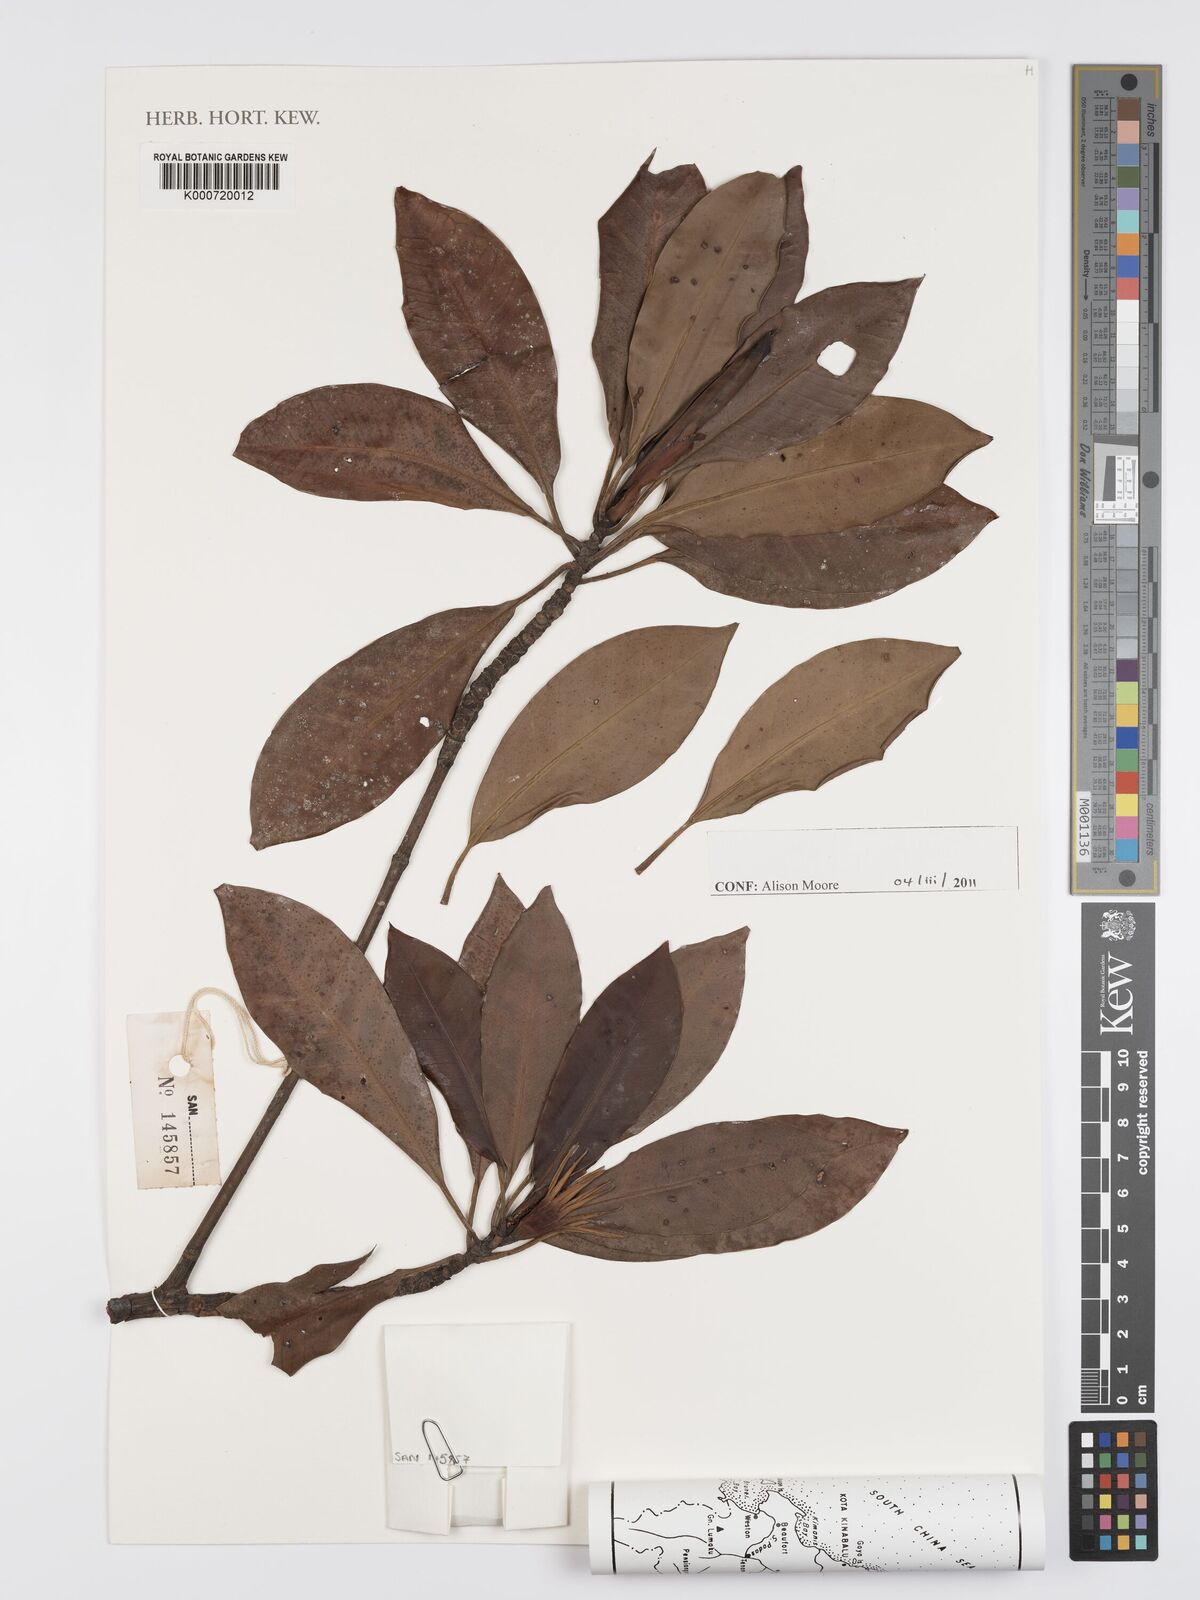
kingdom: Plantae
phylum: Tracheophyta
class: Magnoliopsida
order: Malpighiales
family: Rhizophoraceae
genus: Bruguiera
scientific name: Bruguiera sexangula
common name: Oriental mangrove
